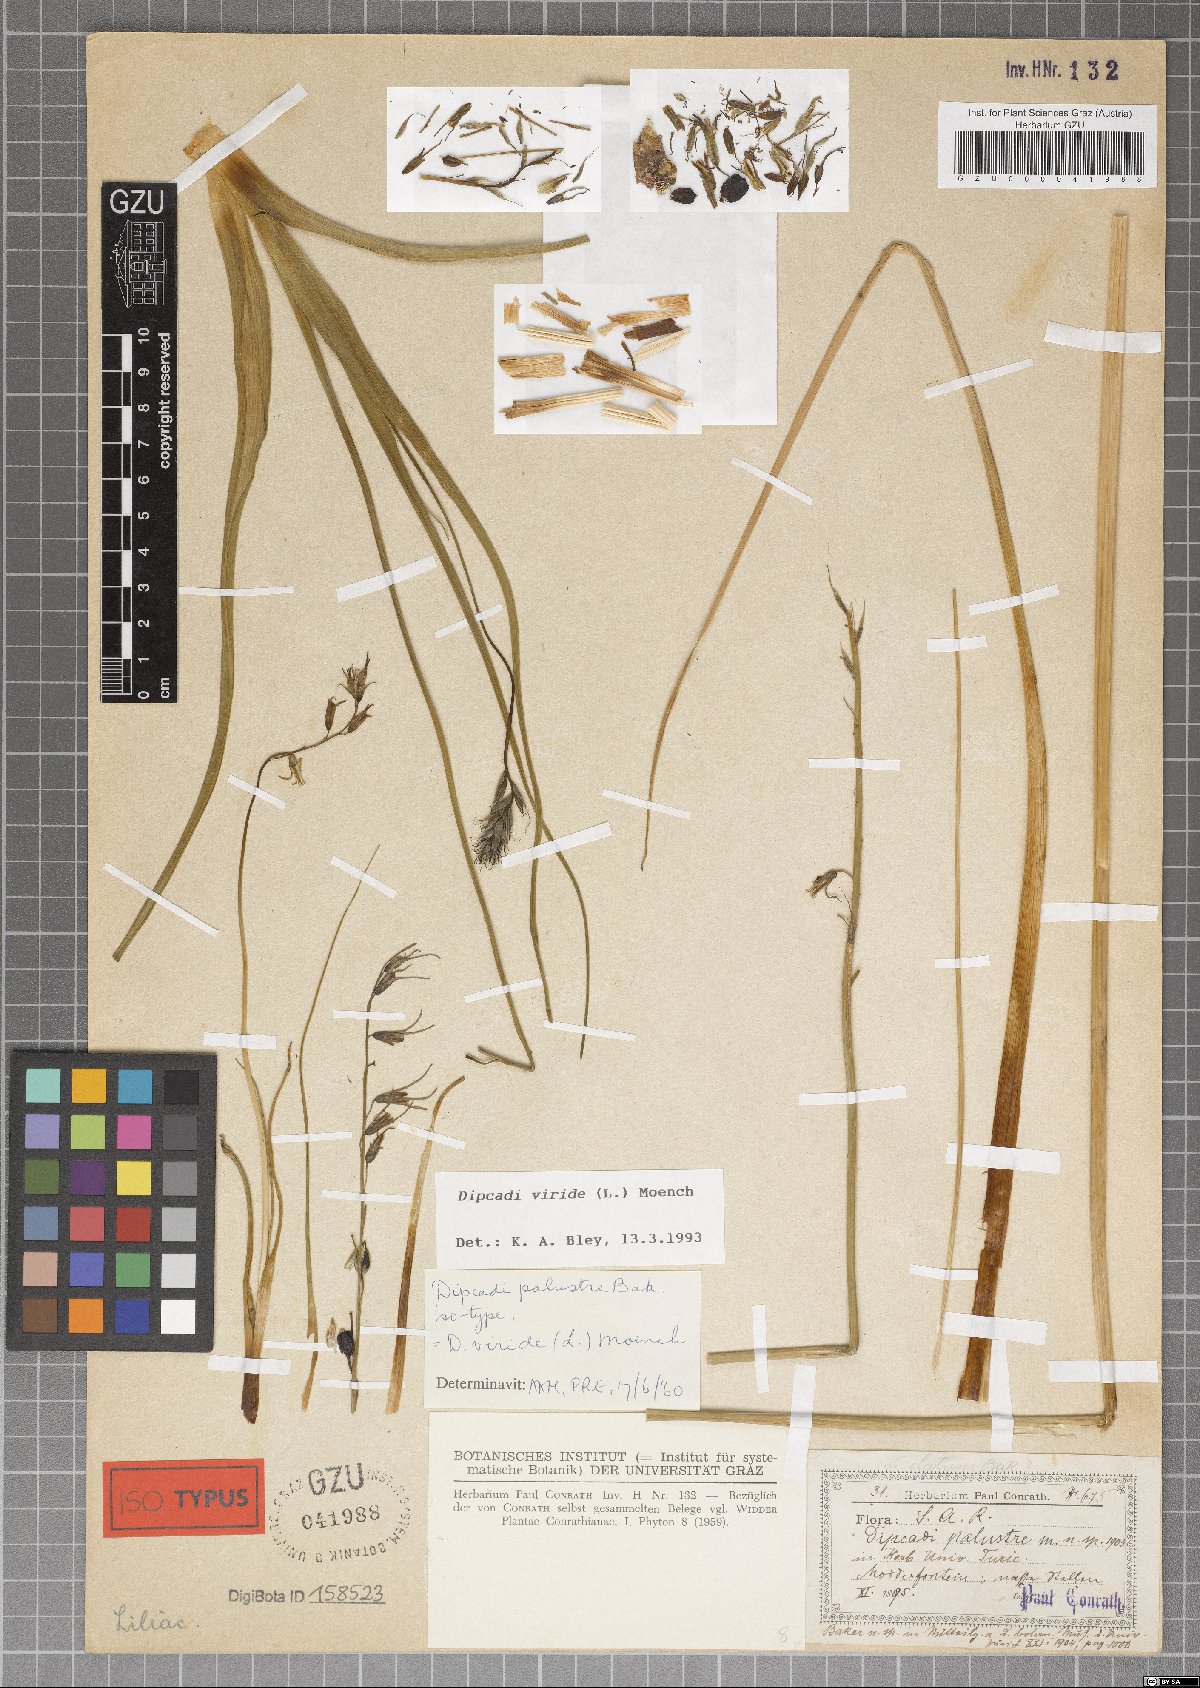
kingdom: Plantae
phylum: Tracheophyta
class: Liliopsida
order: Asparagales
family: Asparagaceae
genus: Dipcadi
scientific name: Dipcadi viride
